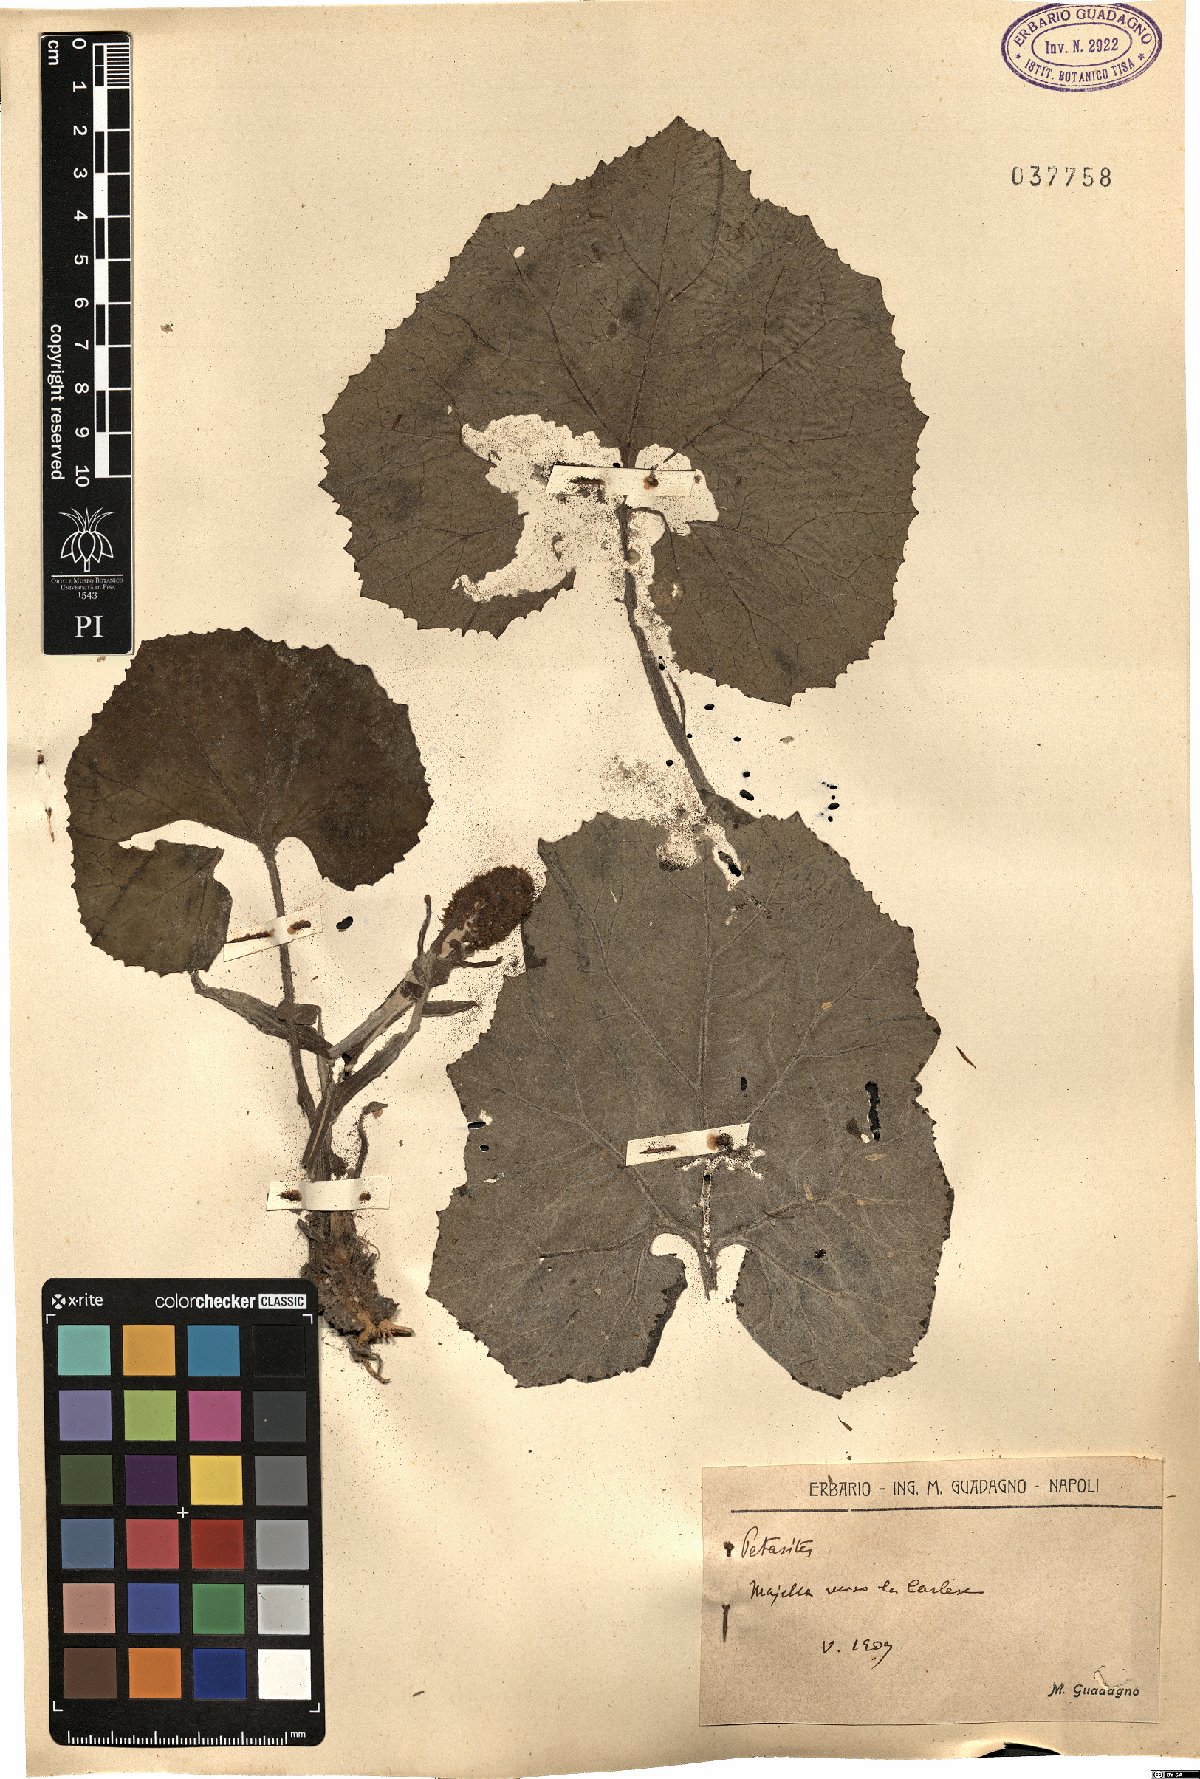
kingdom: Plantae
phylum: Tracheophyta
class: Magnoliopsida
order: Asterales
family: Asteraceae
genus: Petasites
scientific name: Petasites
